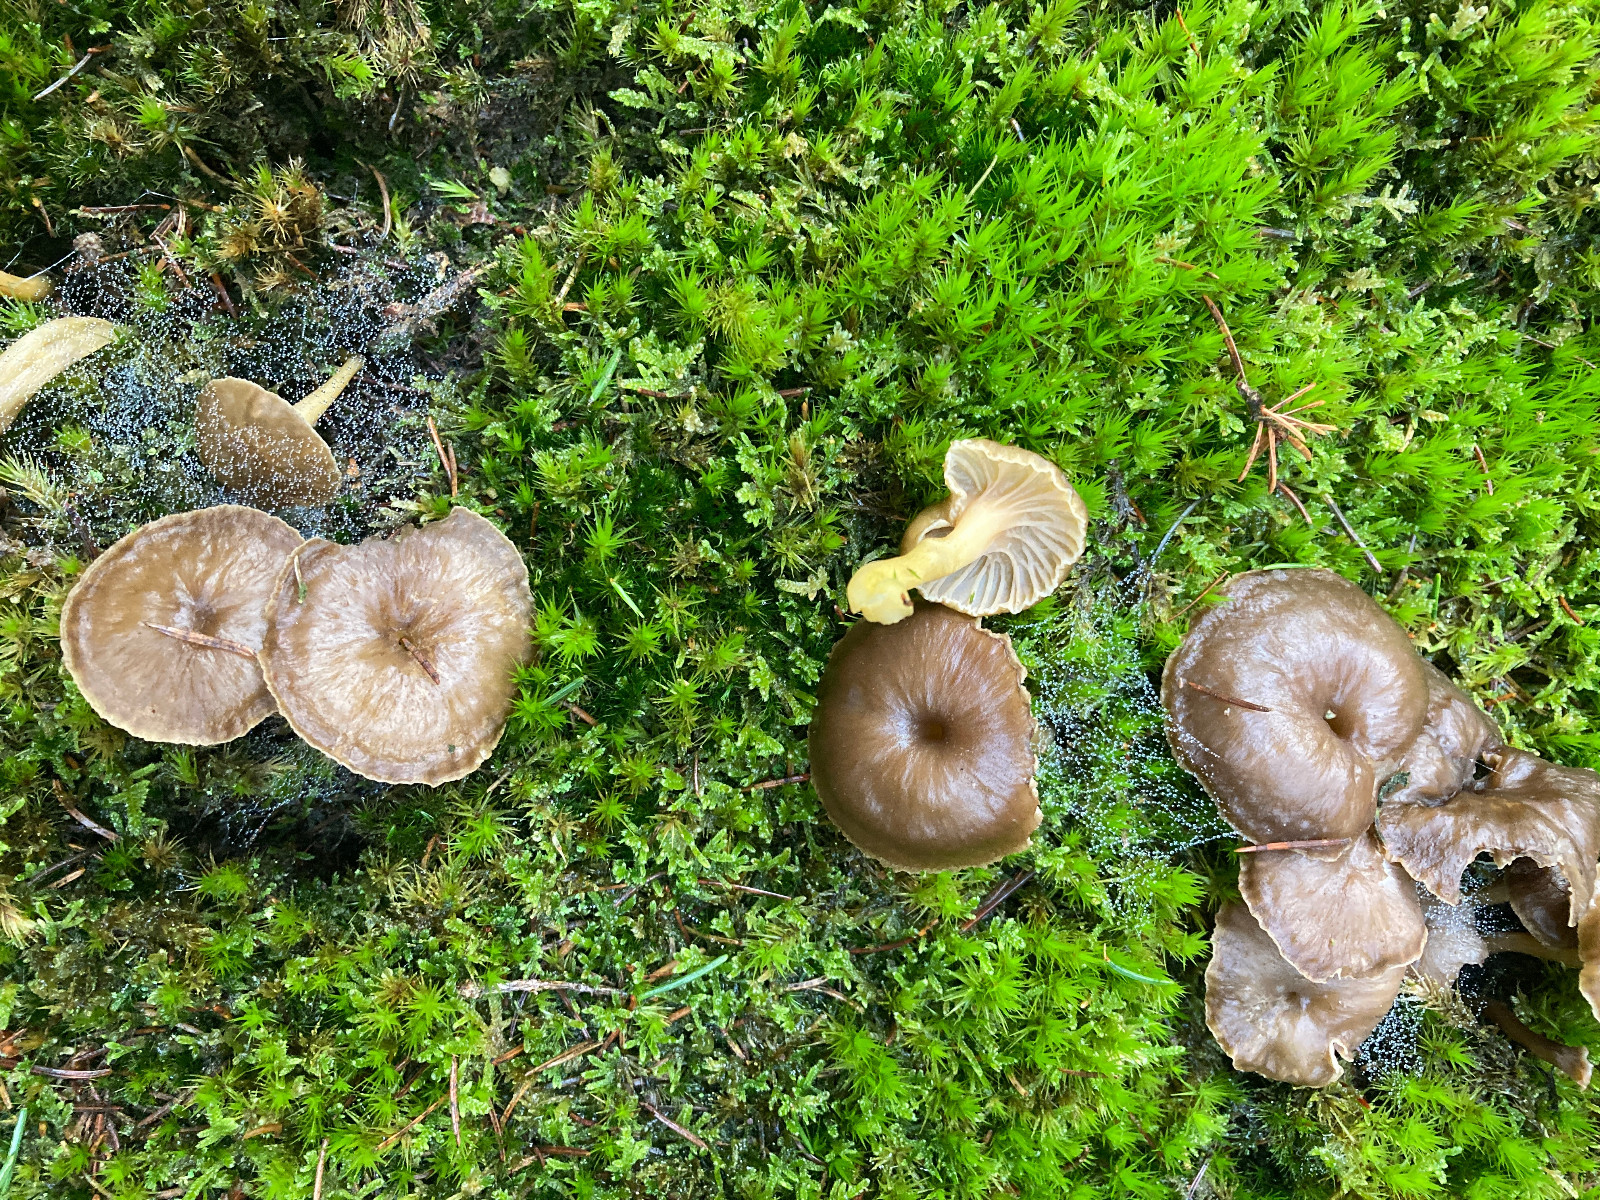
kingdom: Fungi
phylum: Basidiomycota
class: Agaricomycetes
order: Cantharellales
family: Hydnaceae
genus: Craterellus
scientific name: Craterellus tubaeformis
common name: tragt-kantarel
